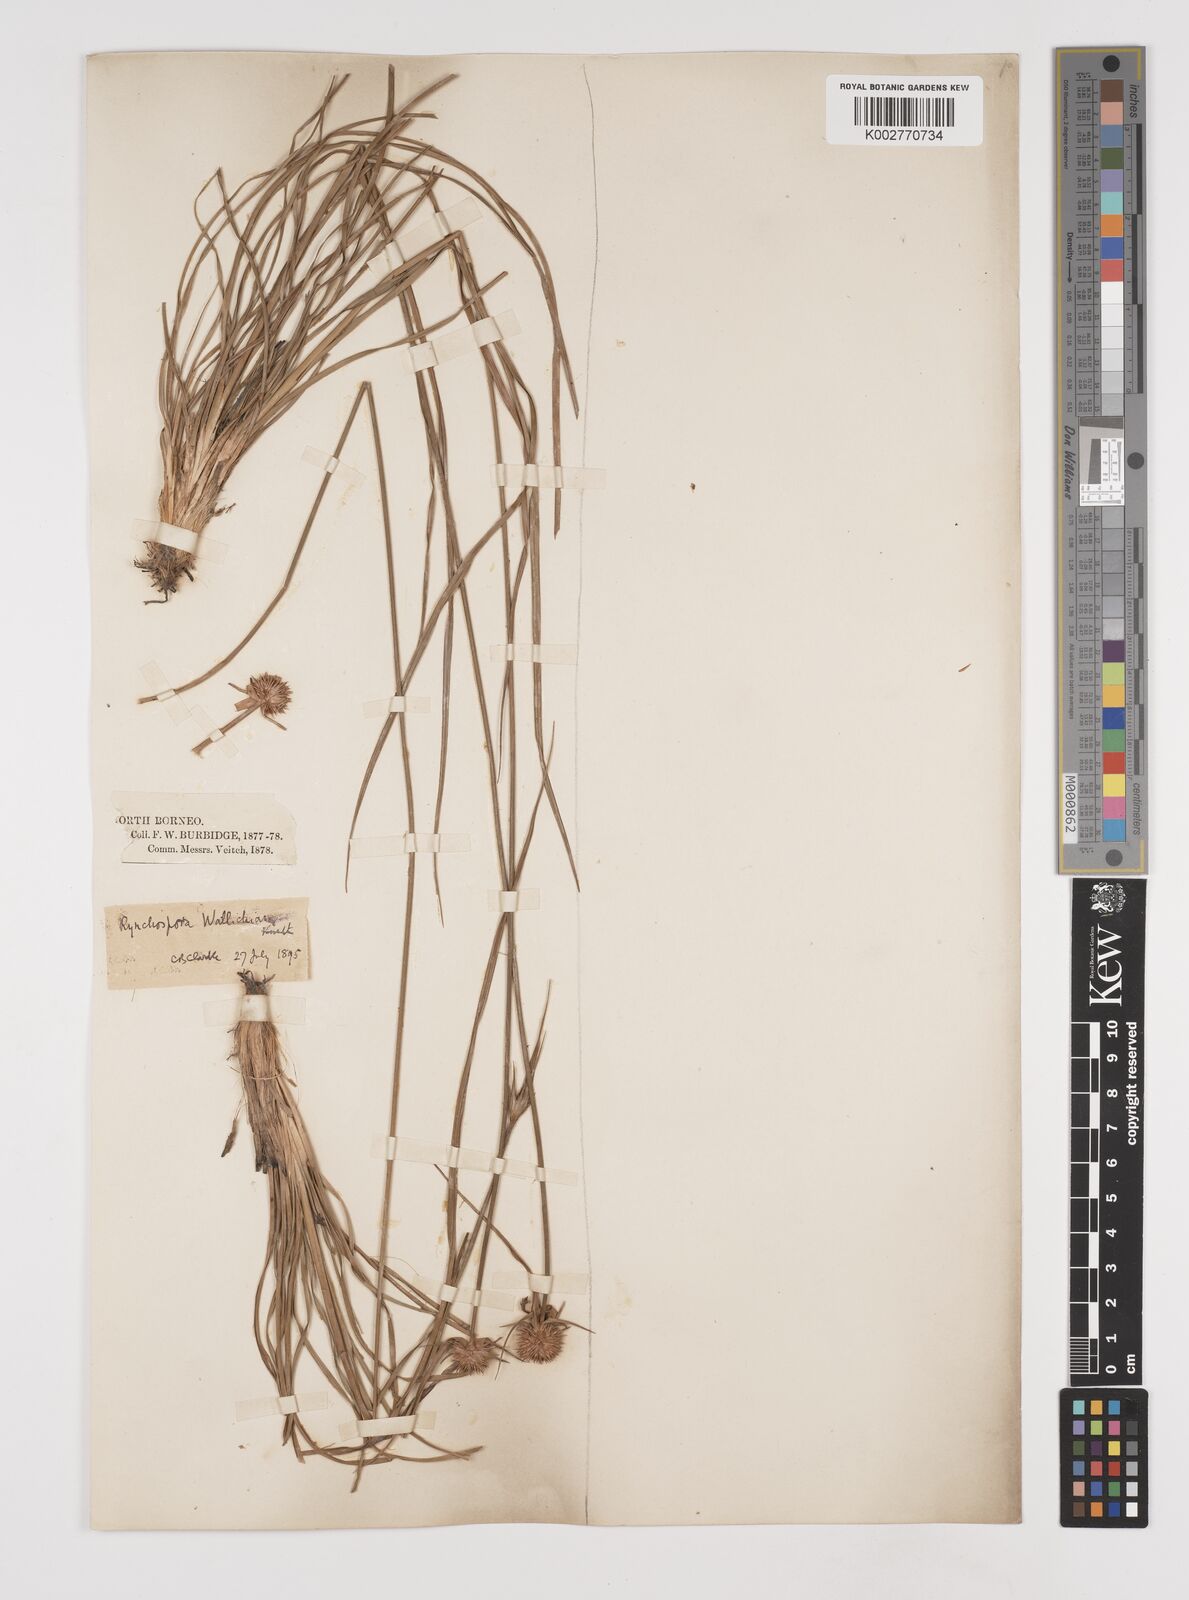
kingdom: Plantae
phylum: Tracheophyta
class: Liliopsida
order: Poales
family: Cyperaceae
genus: Rhynchospora
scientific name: Rhynchospora rubra
